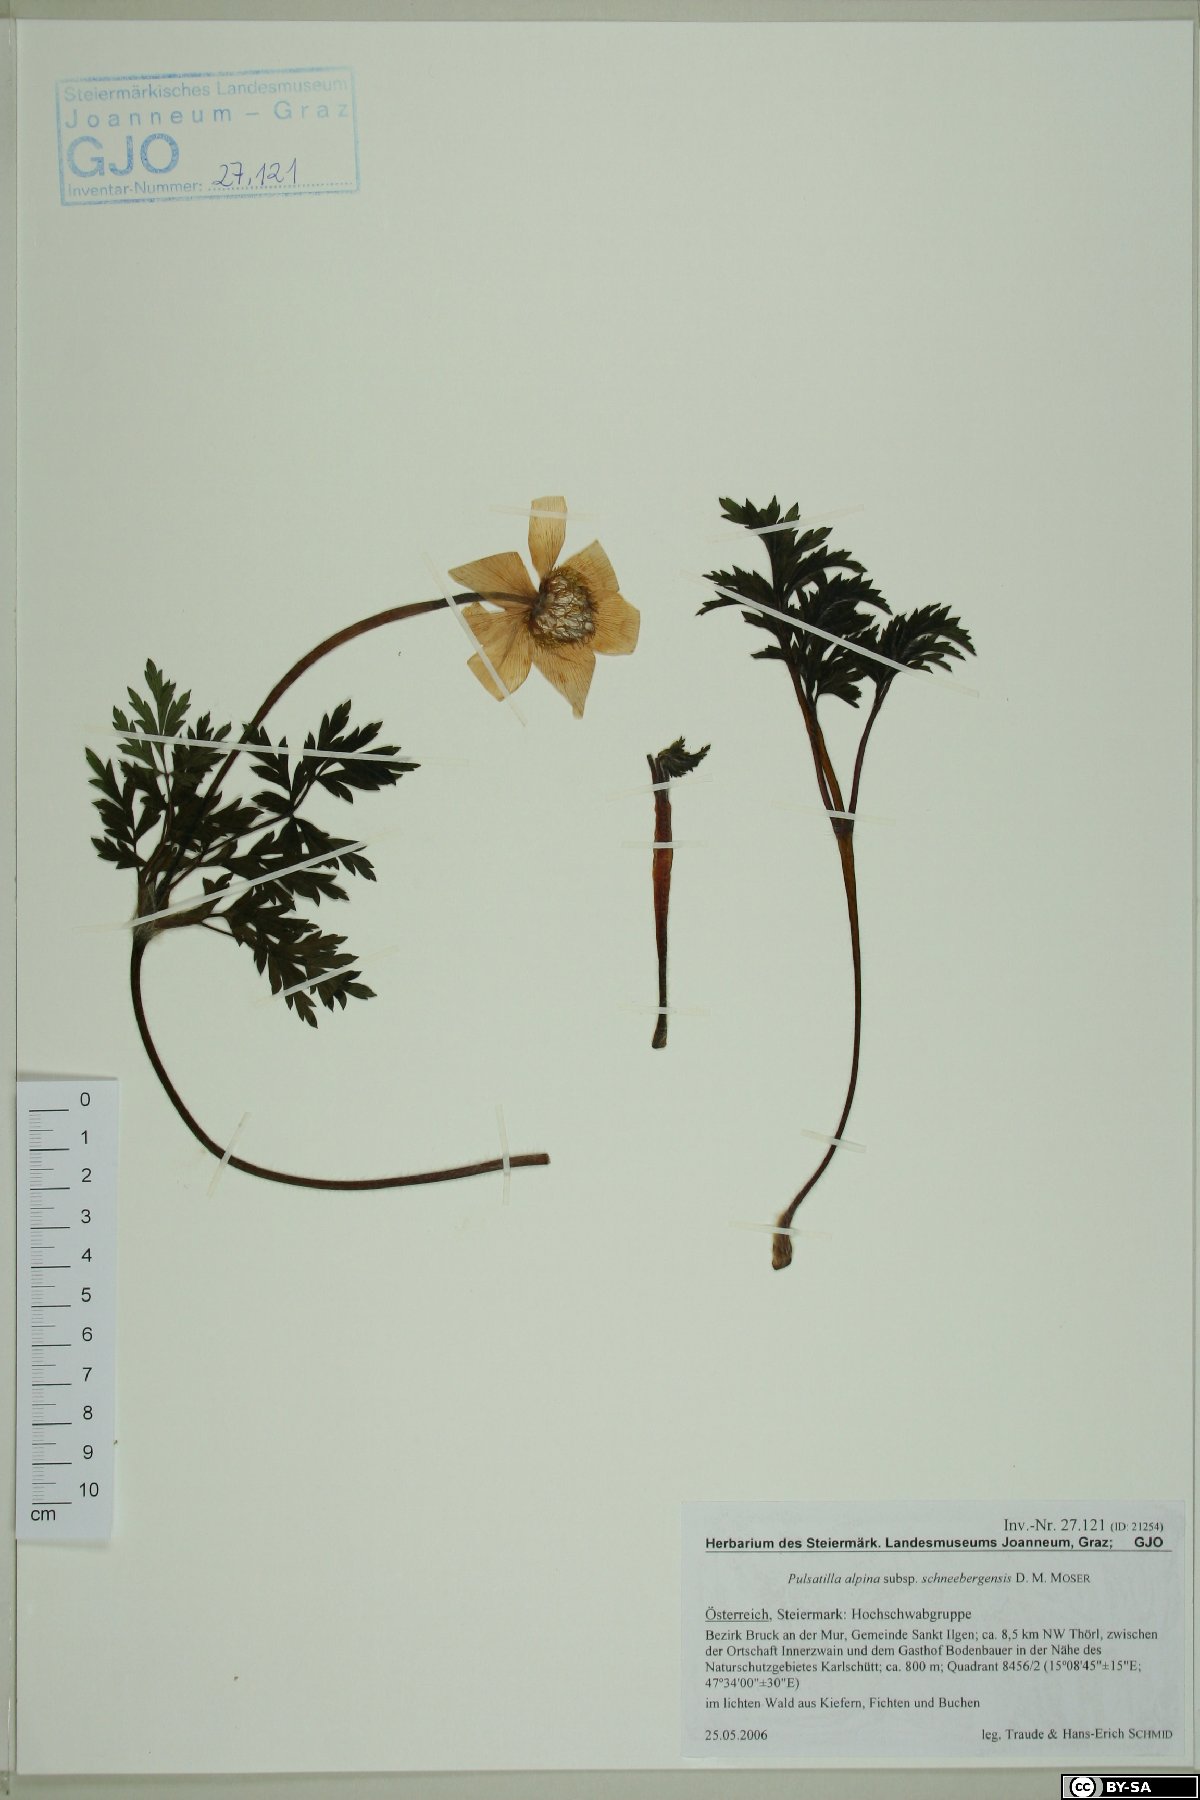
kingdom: Plantae
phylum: Tracheophyta
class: Magnoliopsida
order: Ranunculales
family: Ranunculaceae
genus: Pulsatilla
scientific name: Pulsatilla alpina
